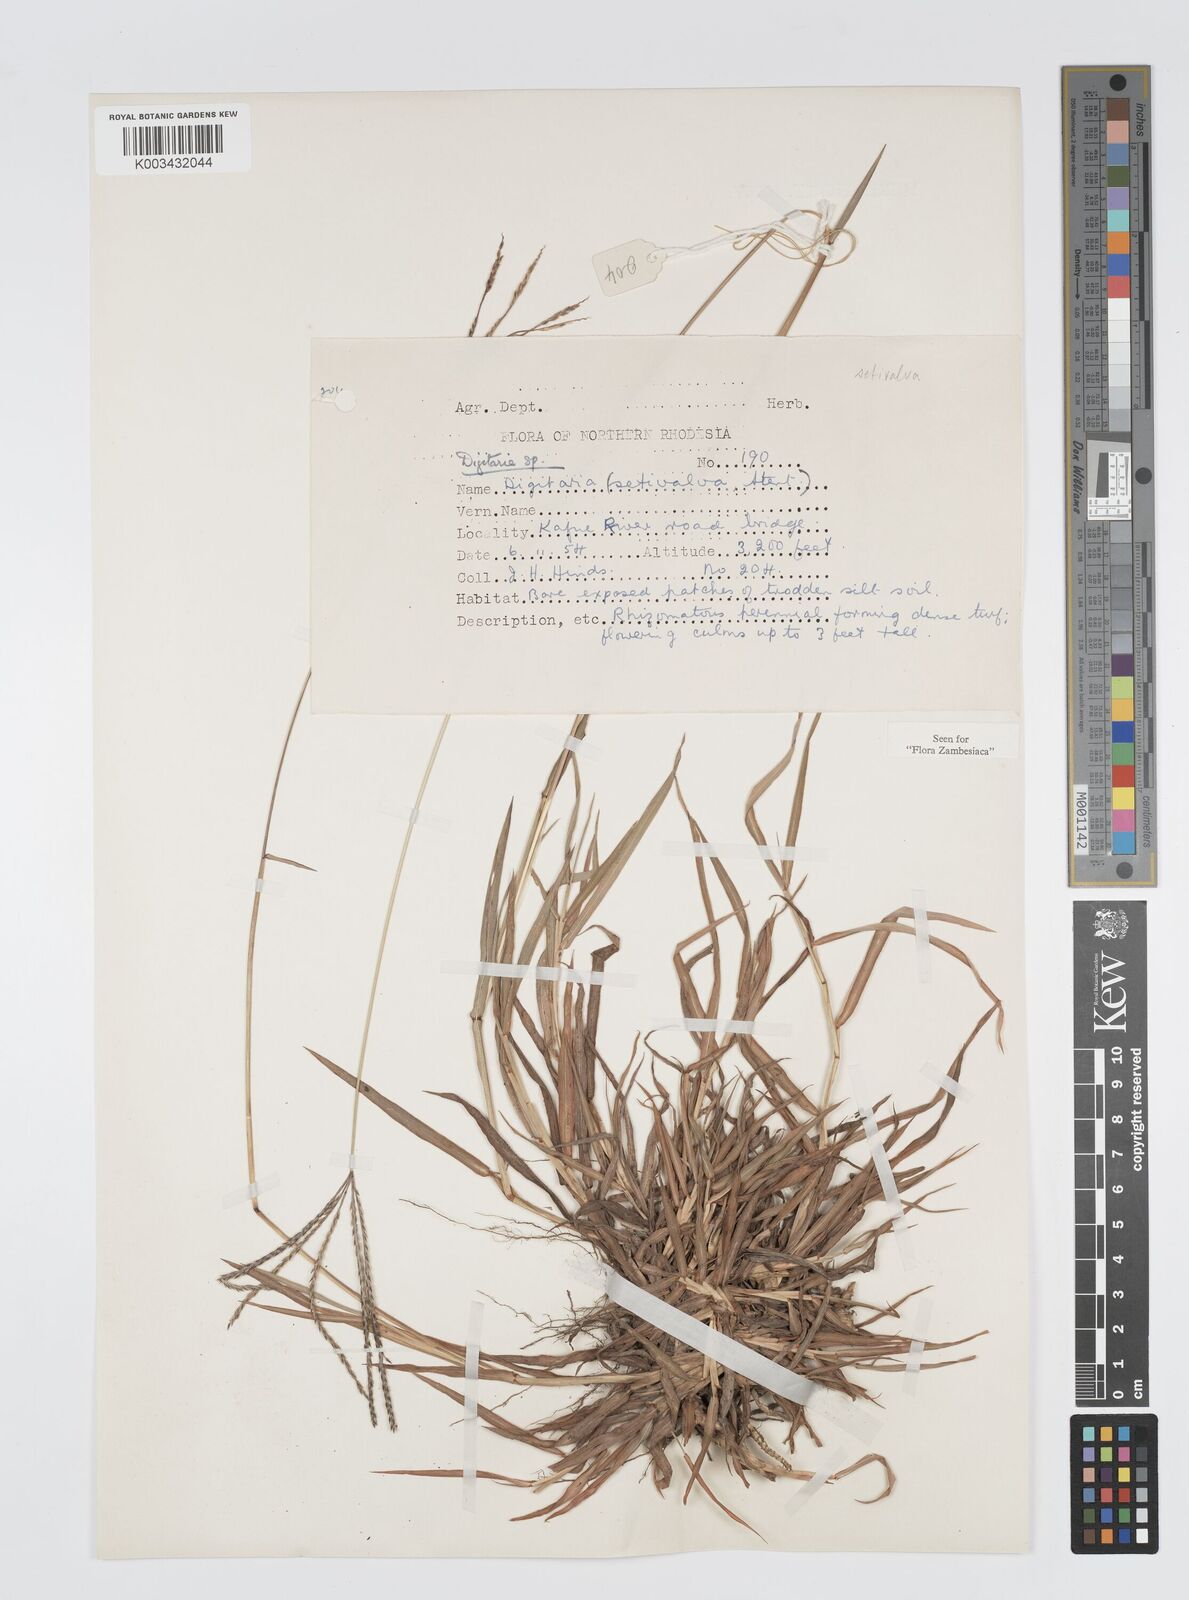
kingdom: Plantae
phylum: Tracheophyta
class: Liliopsida
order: Poales
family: Poaceae
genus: Digitaria
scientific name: Digitaria milanjiana
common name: Madagascar crabgrass
